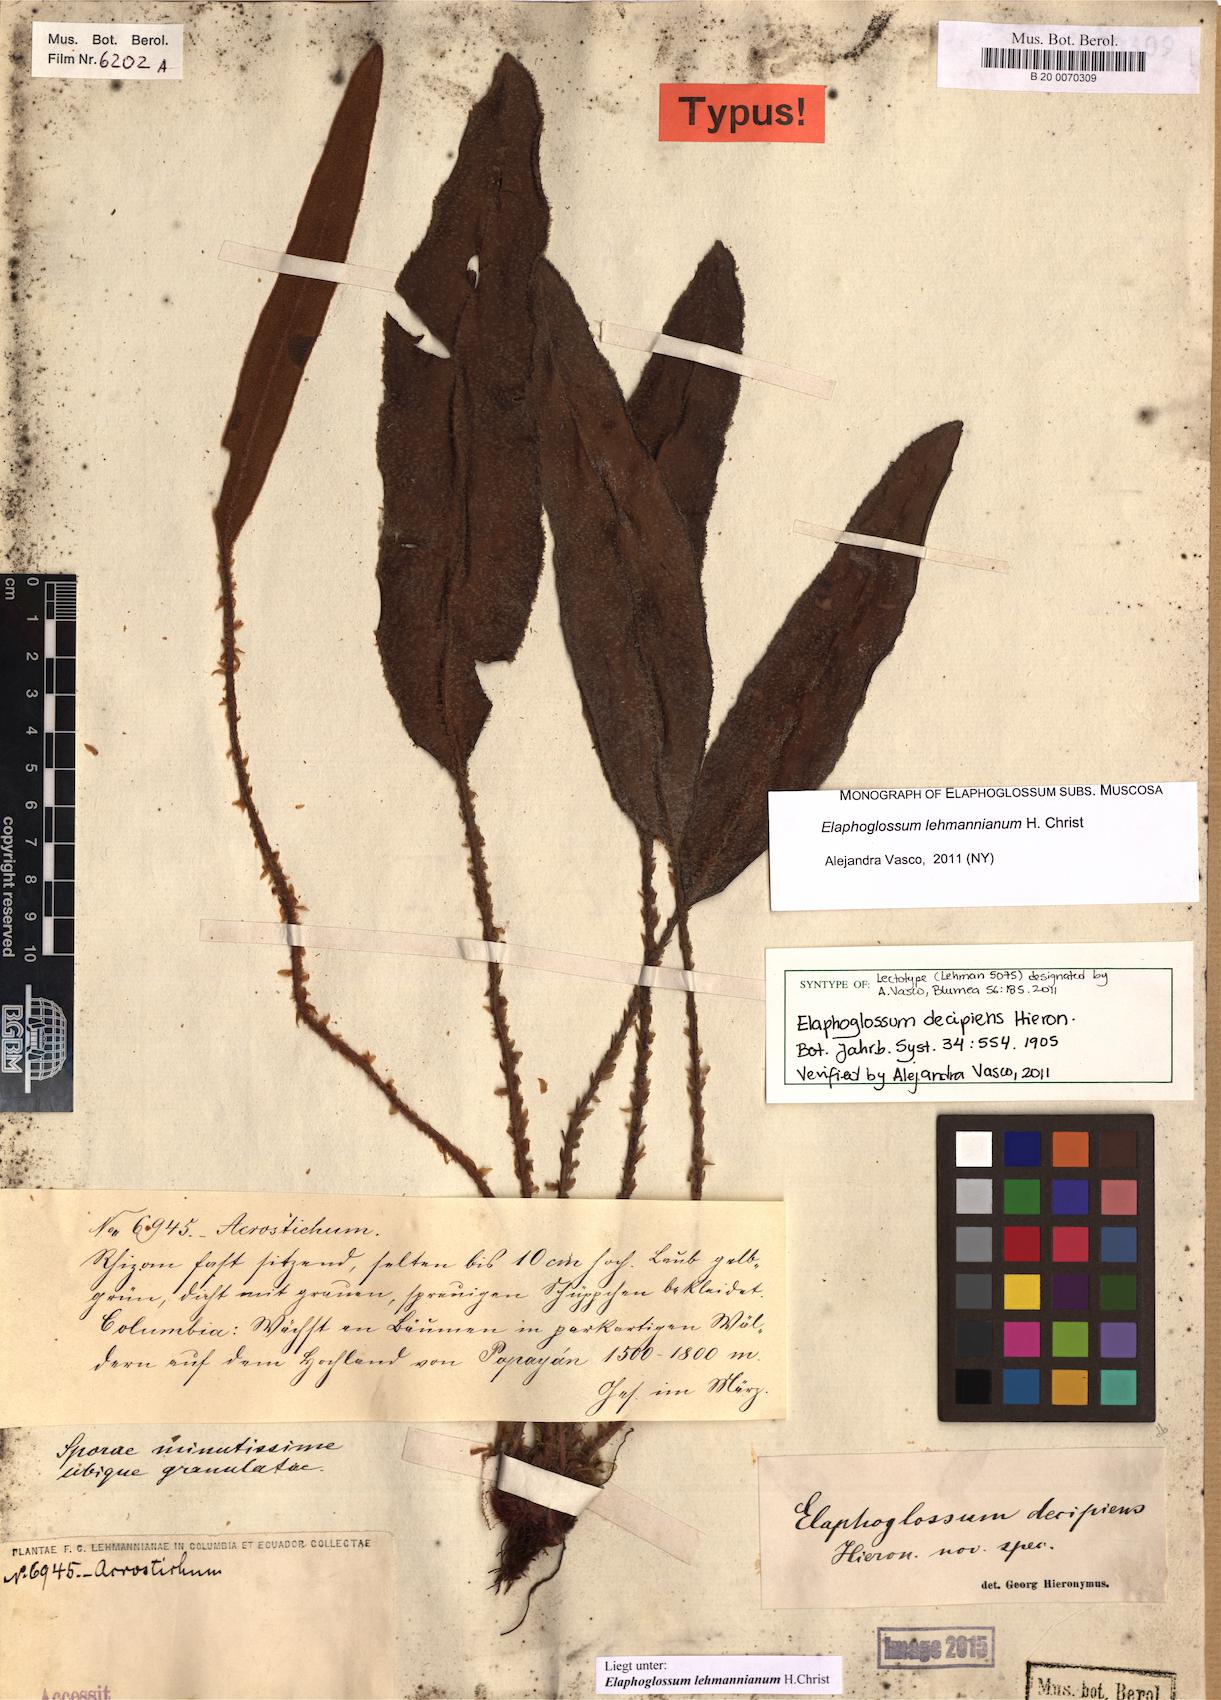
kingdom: Plantae
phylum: Tracheophyta
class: Polypodiopsida
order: Polypodiales
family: Dryopteridaceae
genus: Elaphoglossum
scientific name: Elaphoglossum lehmannianum
